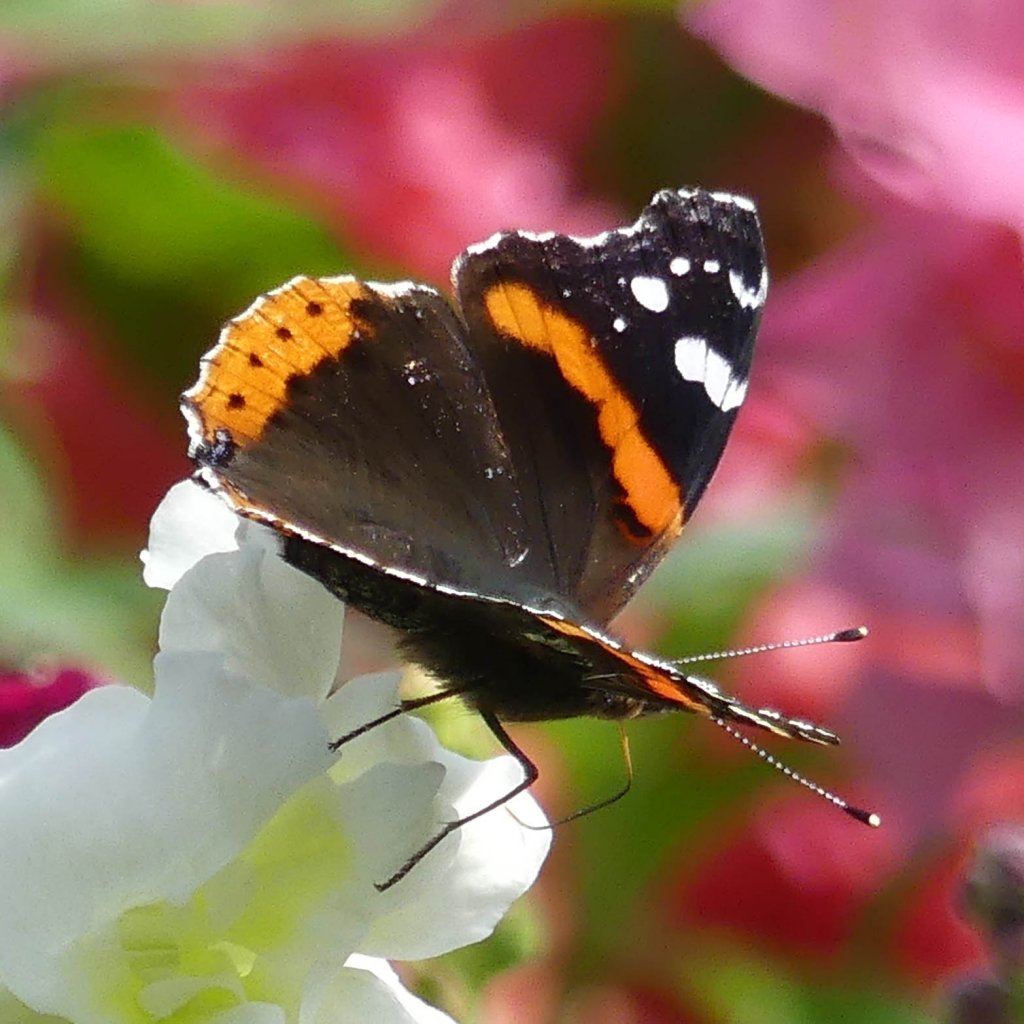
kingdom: Animalia
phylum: Arthropoda
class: Insecta
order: Lepidoptera
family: Nymphalidae
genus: Vanessa
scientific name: Vanessa atalanta
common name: Red Admiral
